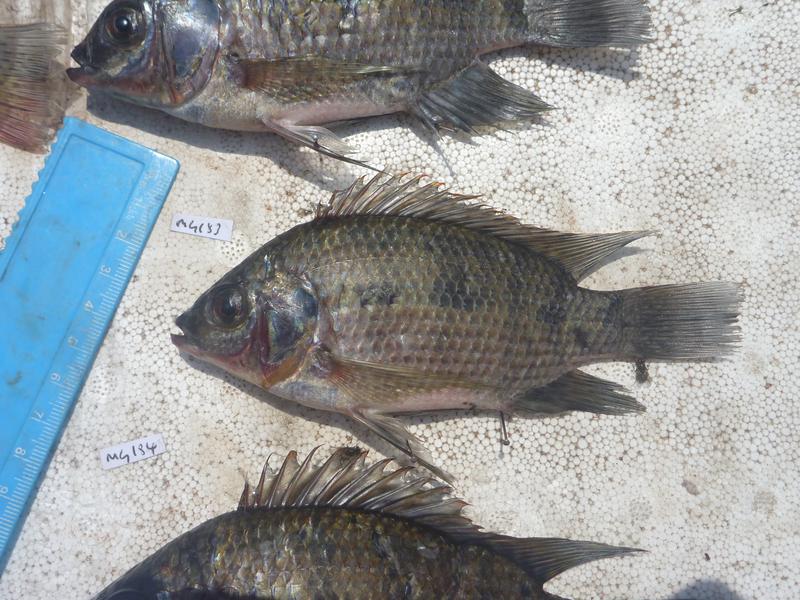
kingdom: Animalia
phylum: Chordata
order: Perciformes
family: Cichlidae
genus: Oreochromis
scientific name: Oreochromis upembae
